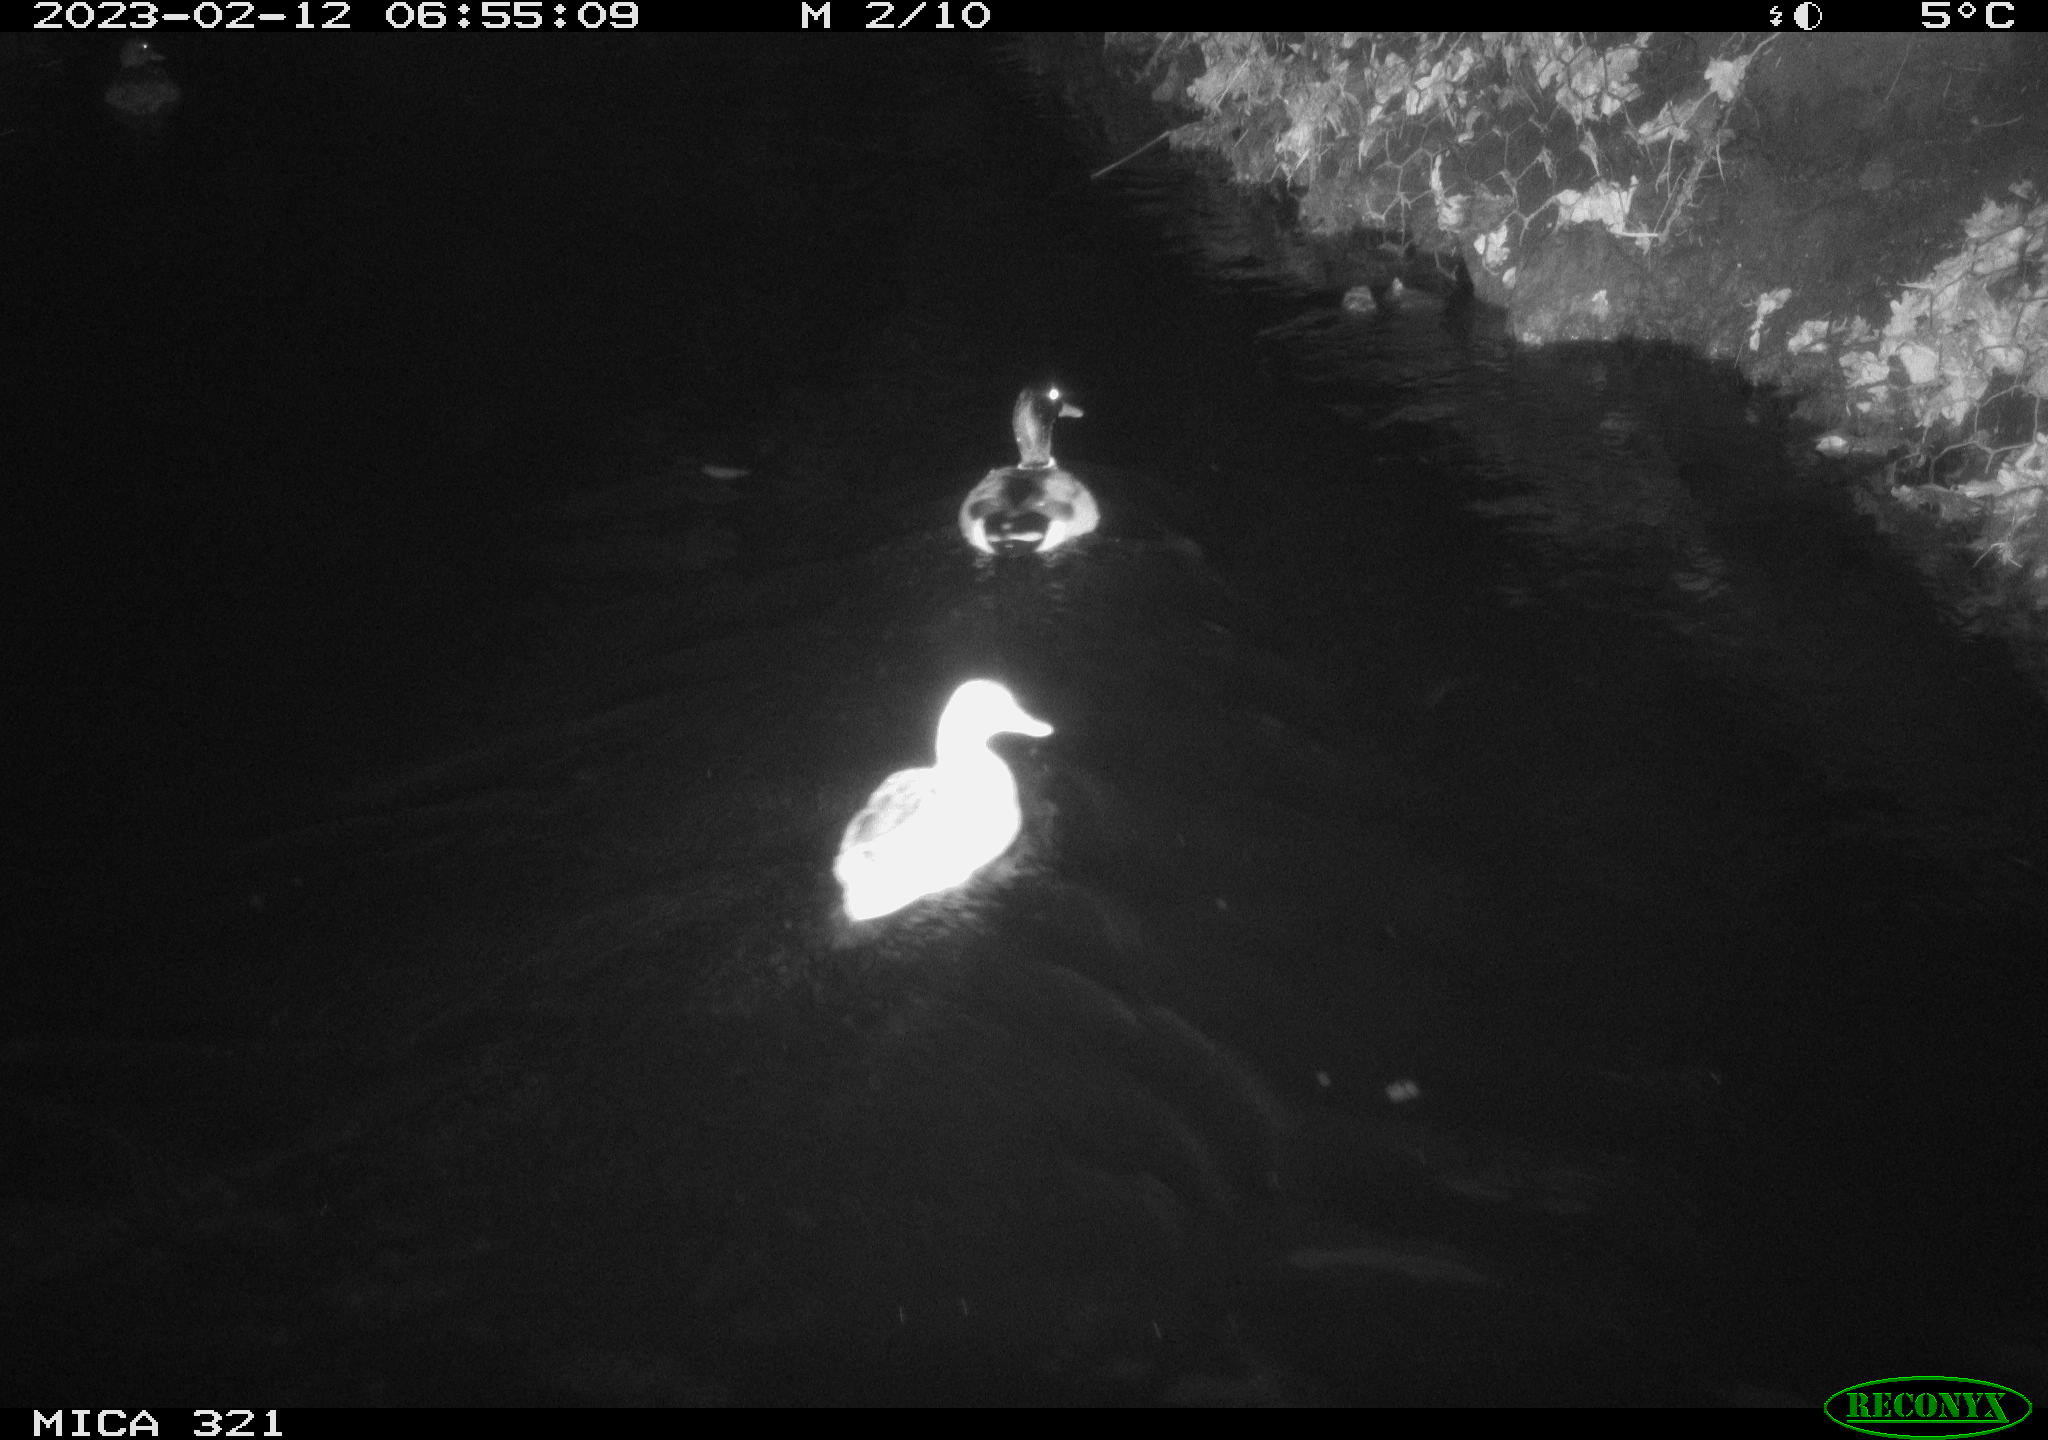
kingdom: Animalia
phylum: Chordata
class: Aves
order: Anseriformes
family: Anatidae
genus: Anas
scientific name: Anas
